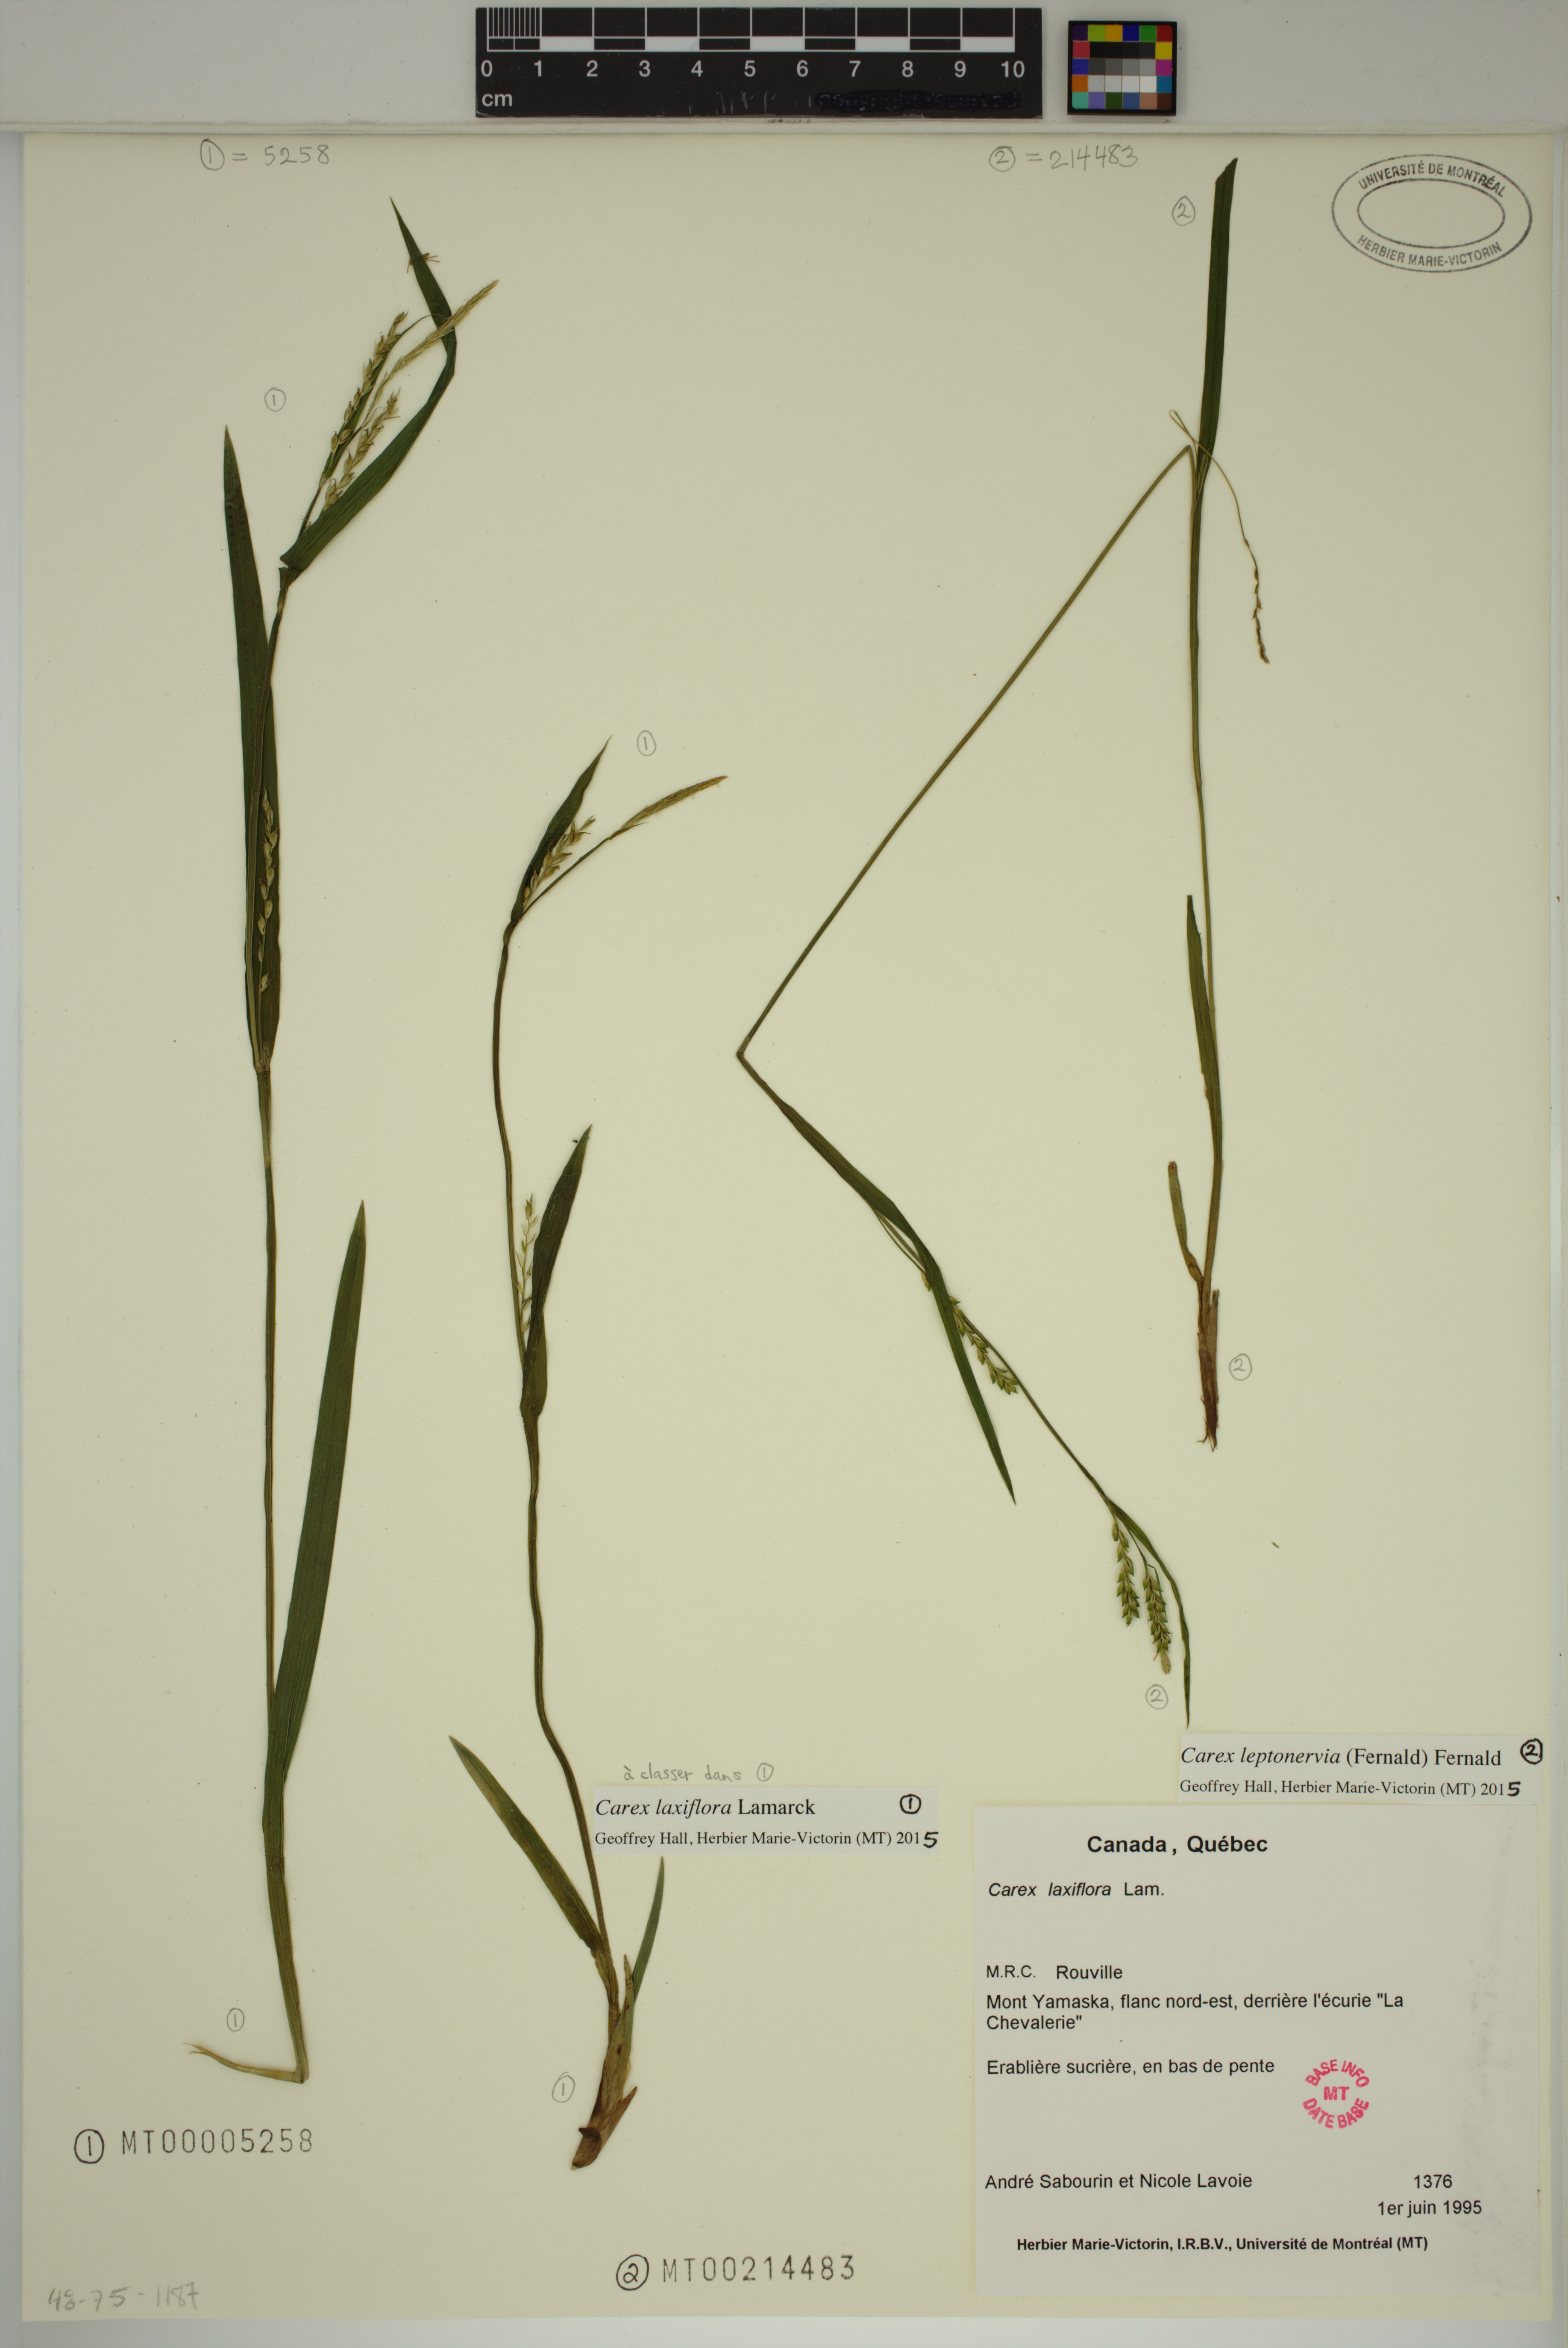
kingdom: Plantae
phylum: Tracheophyta
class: Liliopsida
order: Poales
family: Cyperaceae
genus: Carex
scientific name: Carex leptonervia
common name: Few-nerved wood sedge
